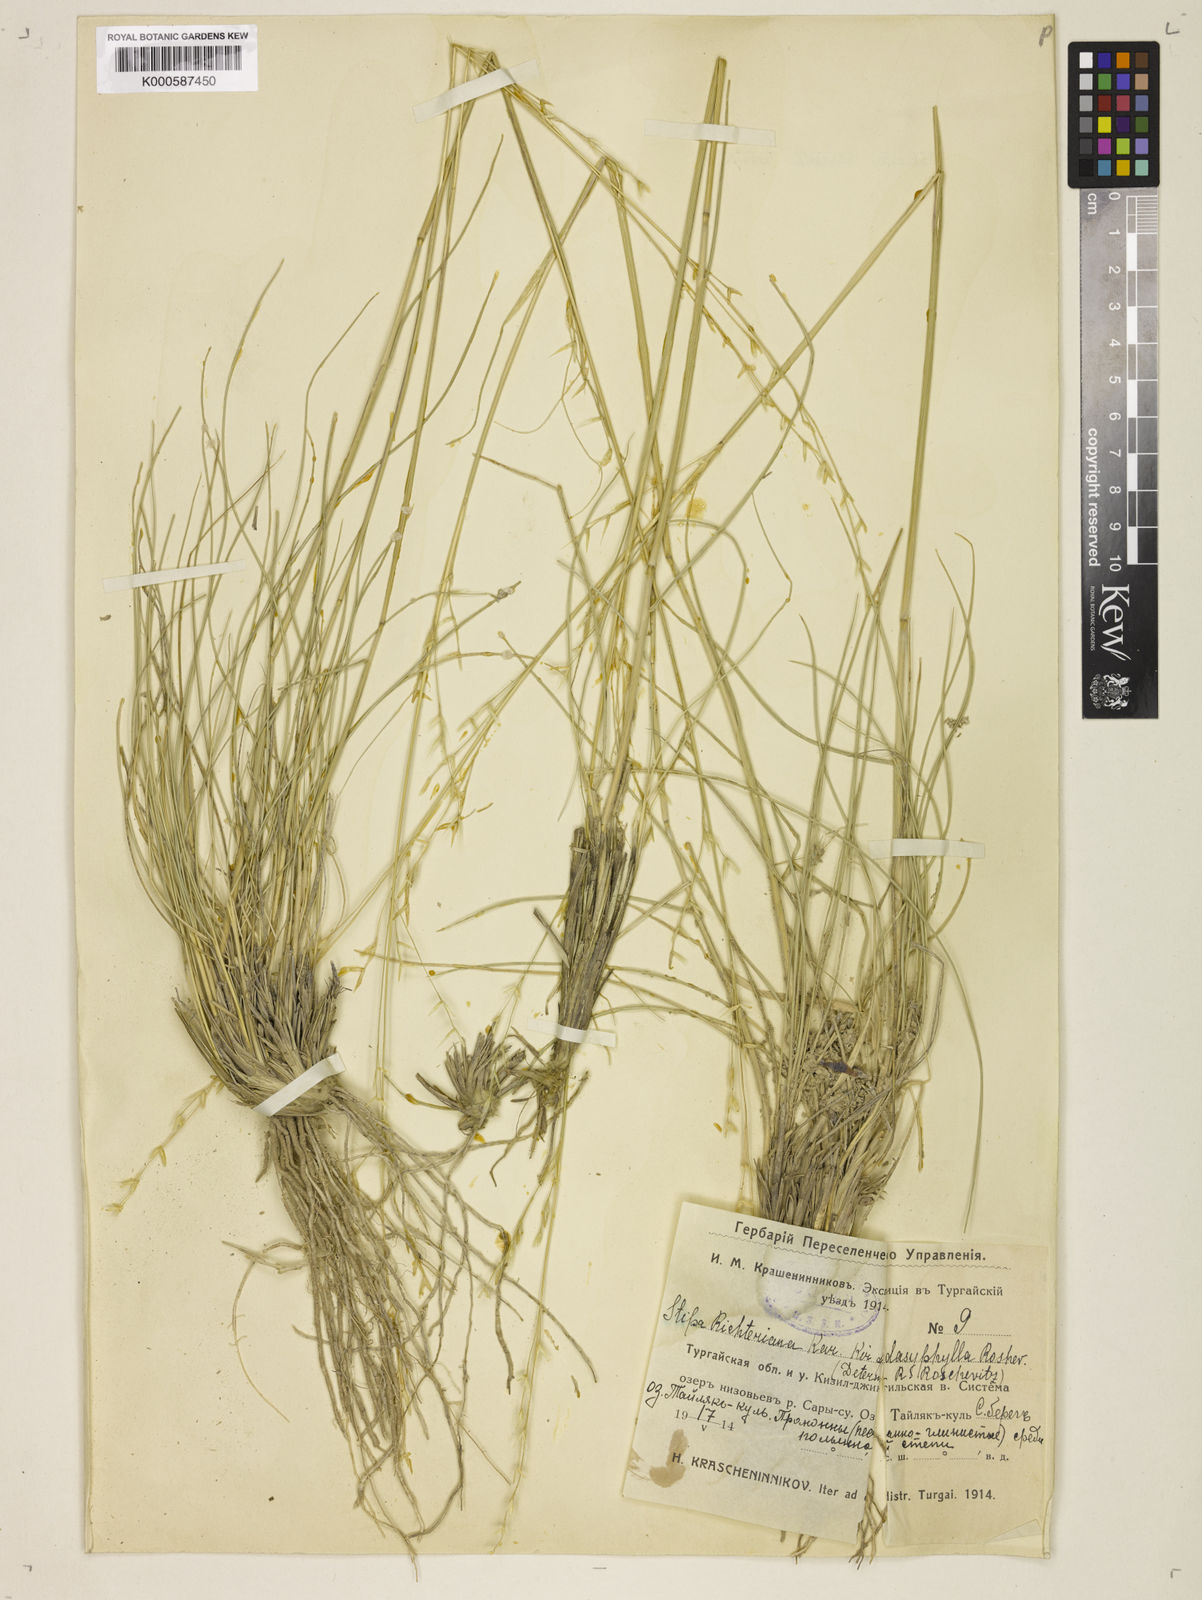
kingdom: Plantae
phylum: Tracheophyta
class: Liliopsida
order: Poales
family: Poaceae
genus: Stipa
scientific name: Stipa
